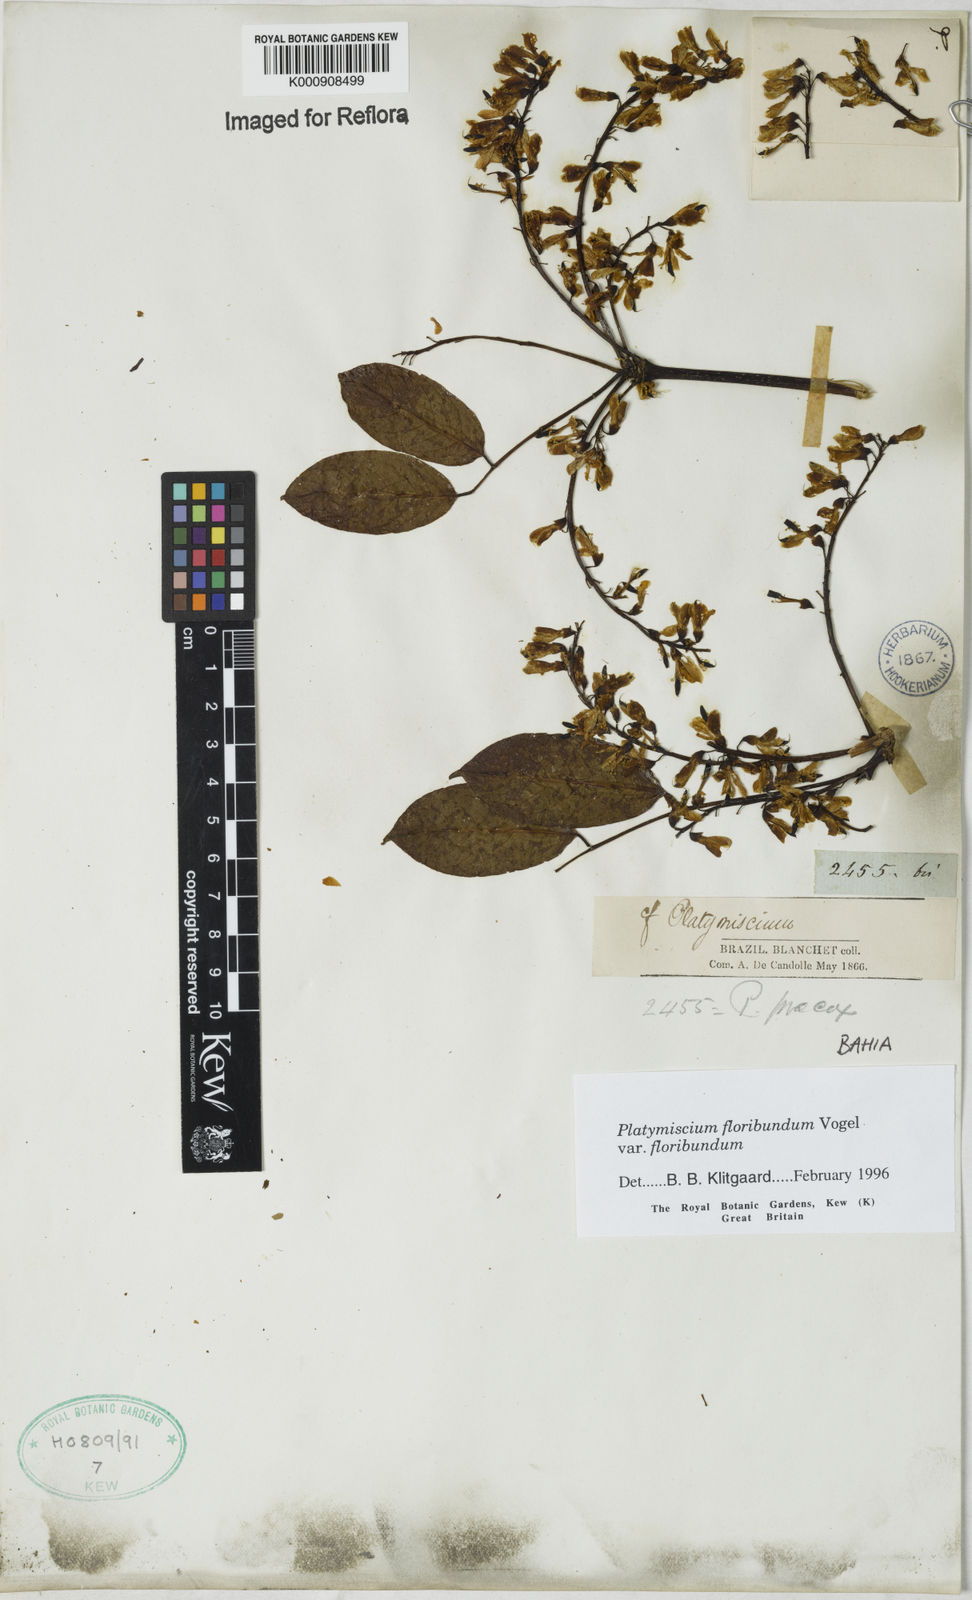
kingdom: Plantae
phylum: Tracheophyta
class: Magnoliopsida
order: Fabales
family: Fabaceae
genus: Platymiscium
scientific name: Platymiscium floribundum
